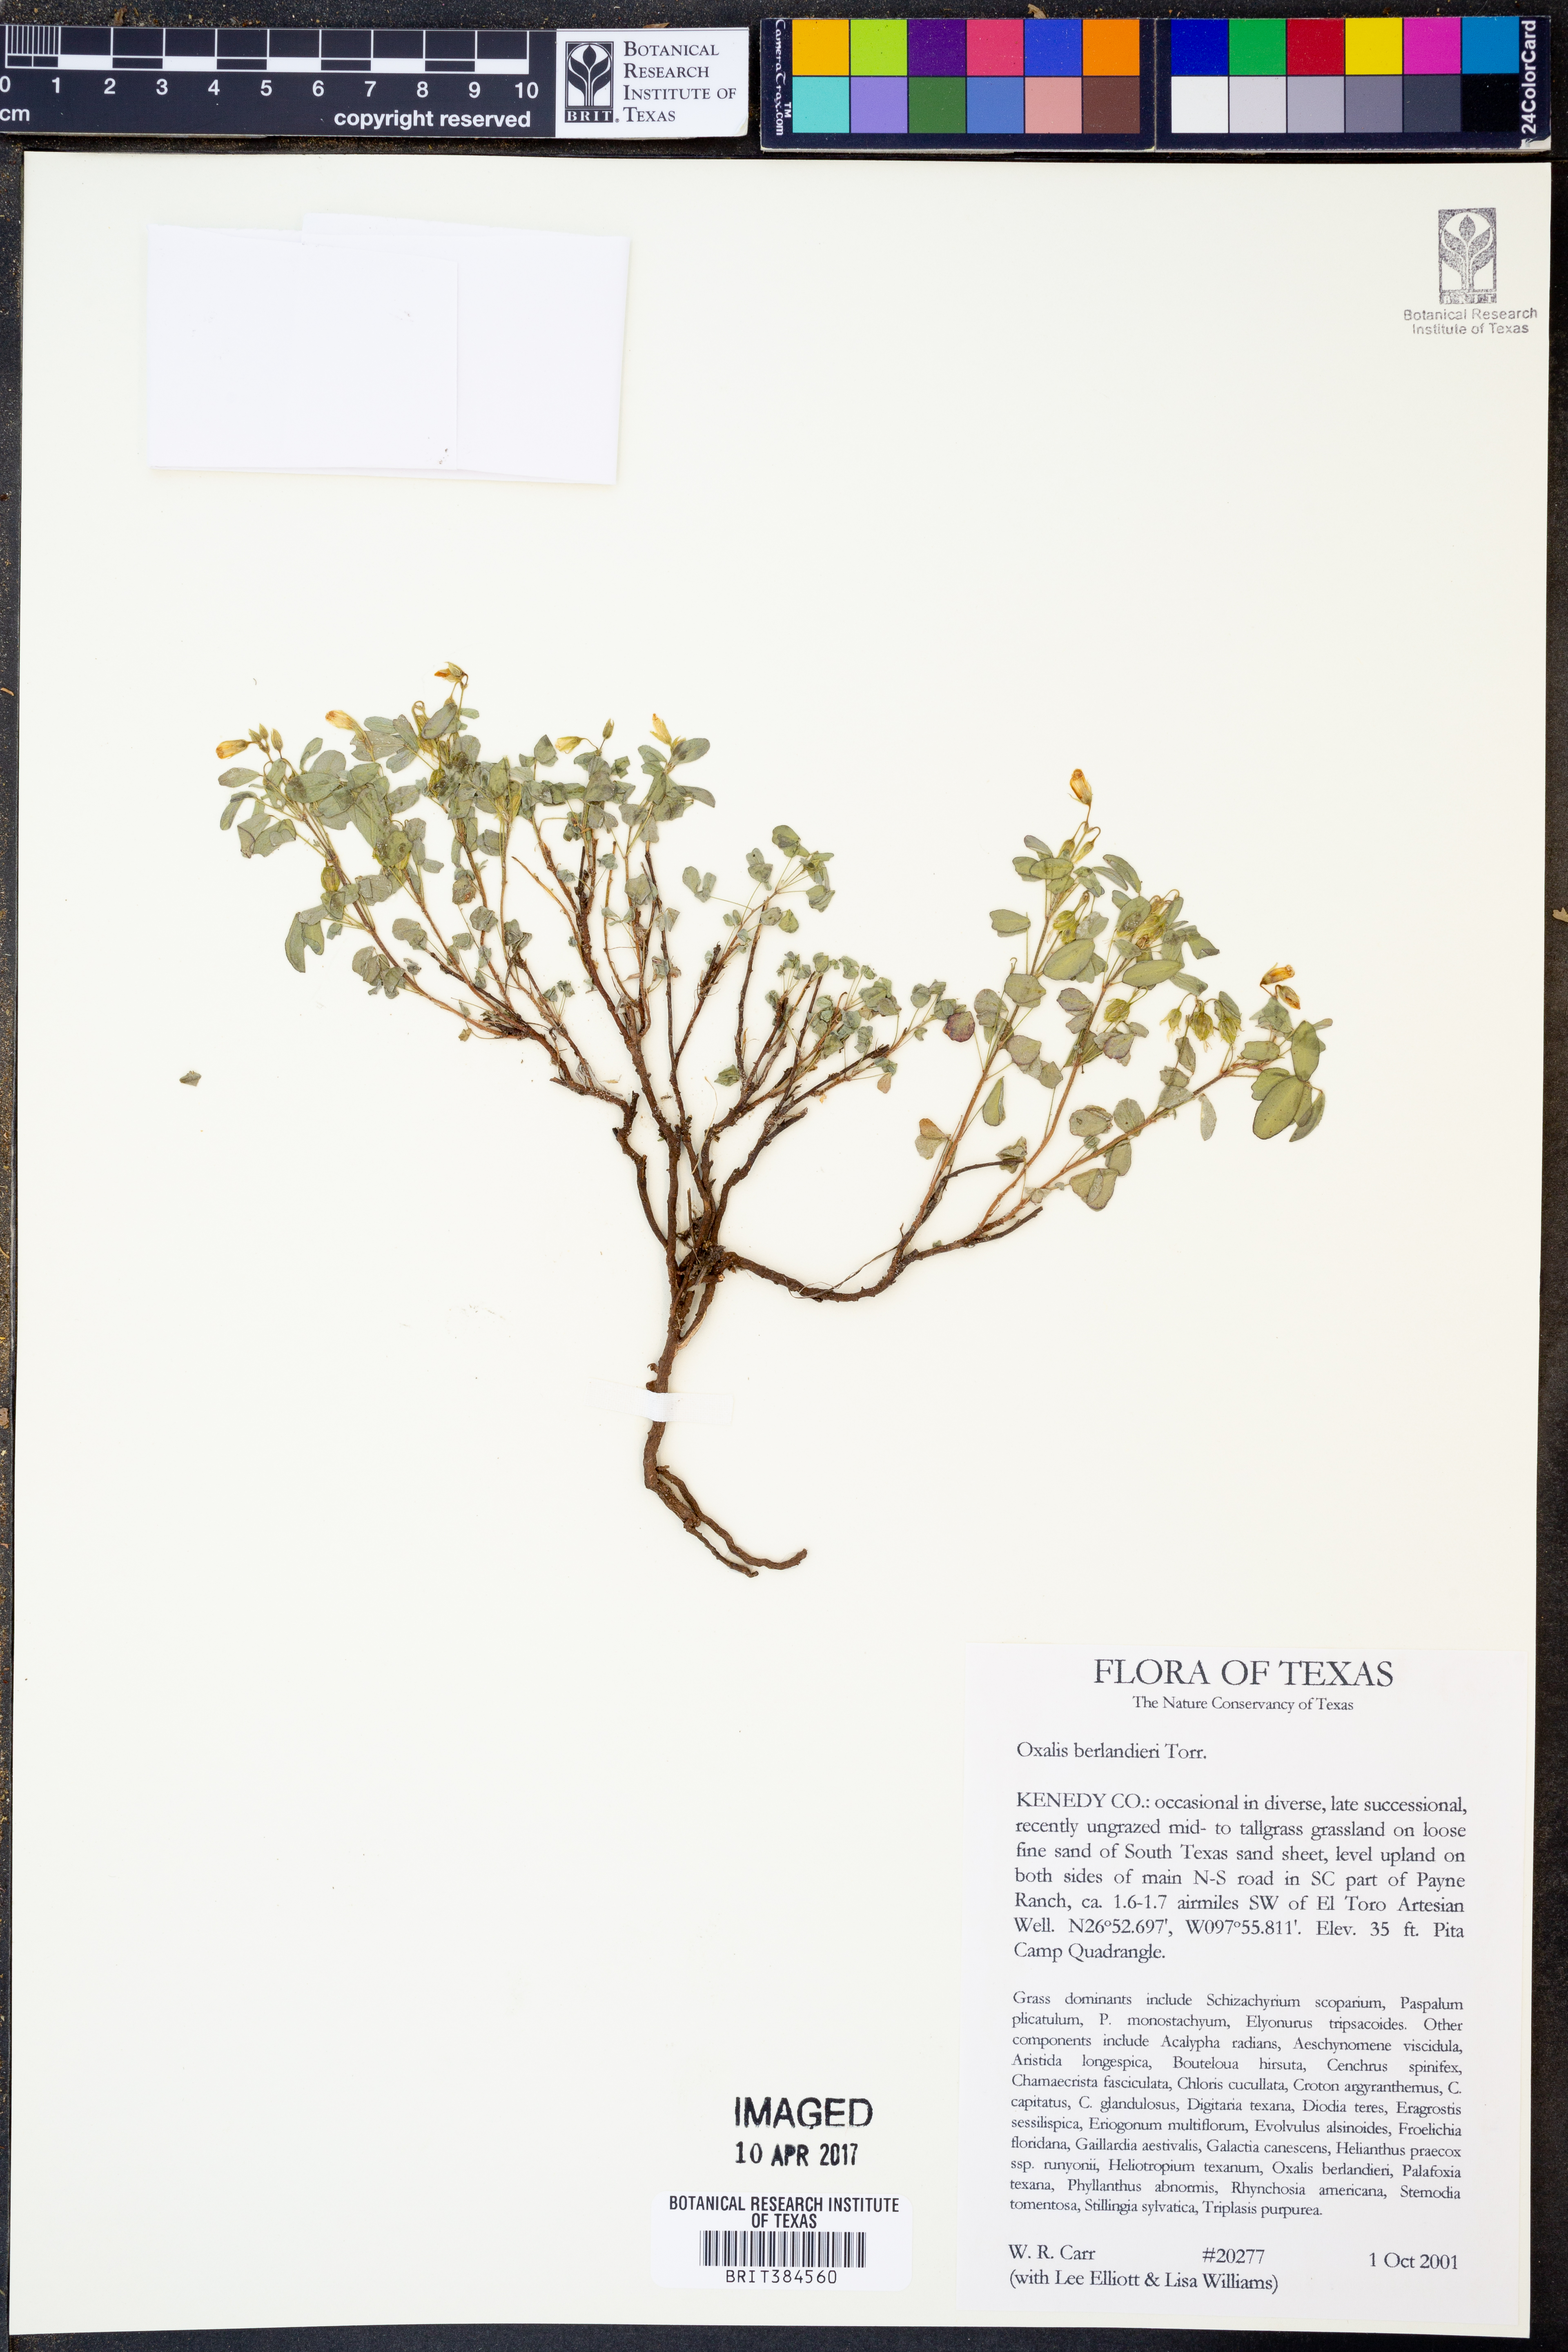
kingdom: Plantae
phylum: Tracheophyta
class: Magnoliopsida
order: Oxalidales
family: Oxalidaceae
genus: Oxalis
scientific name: Oxalis frutescens
